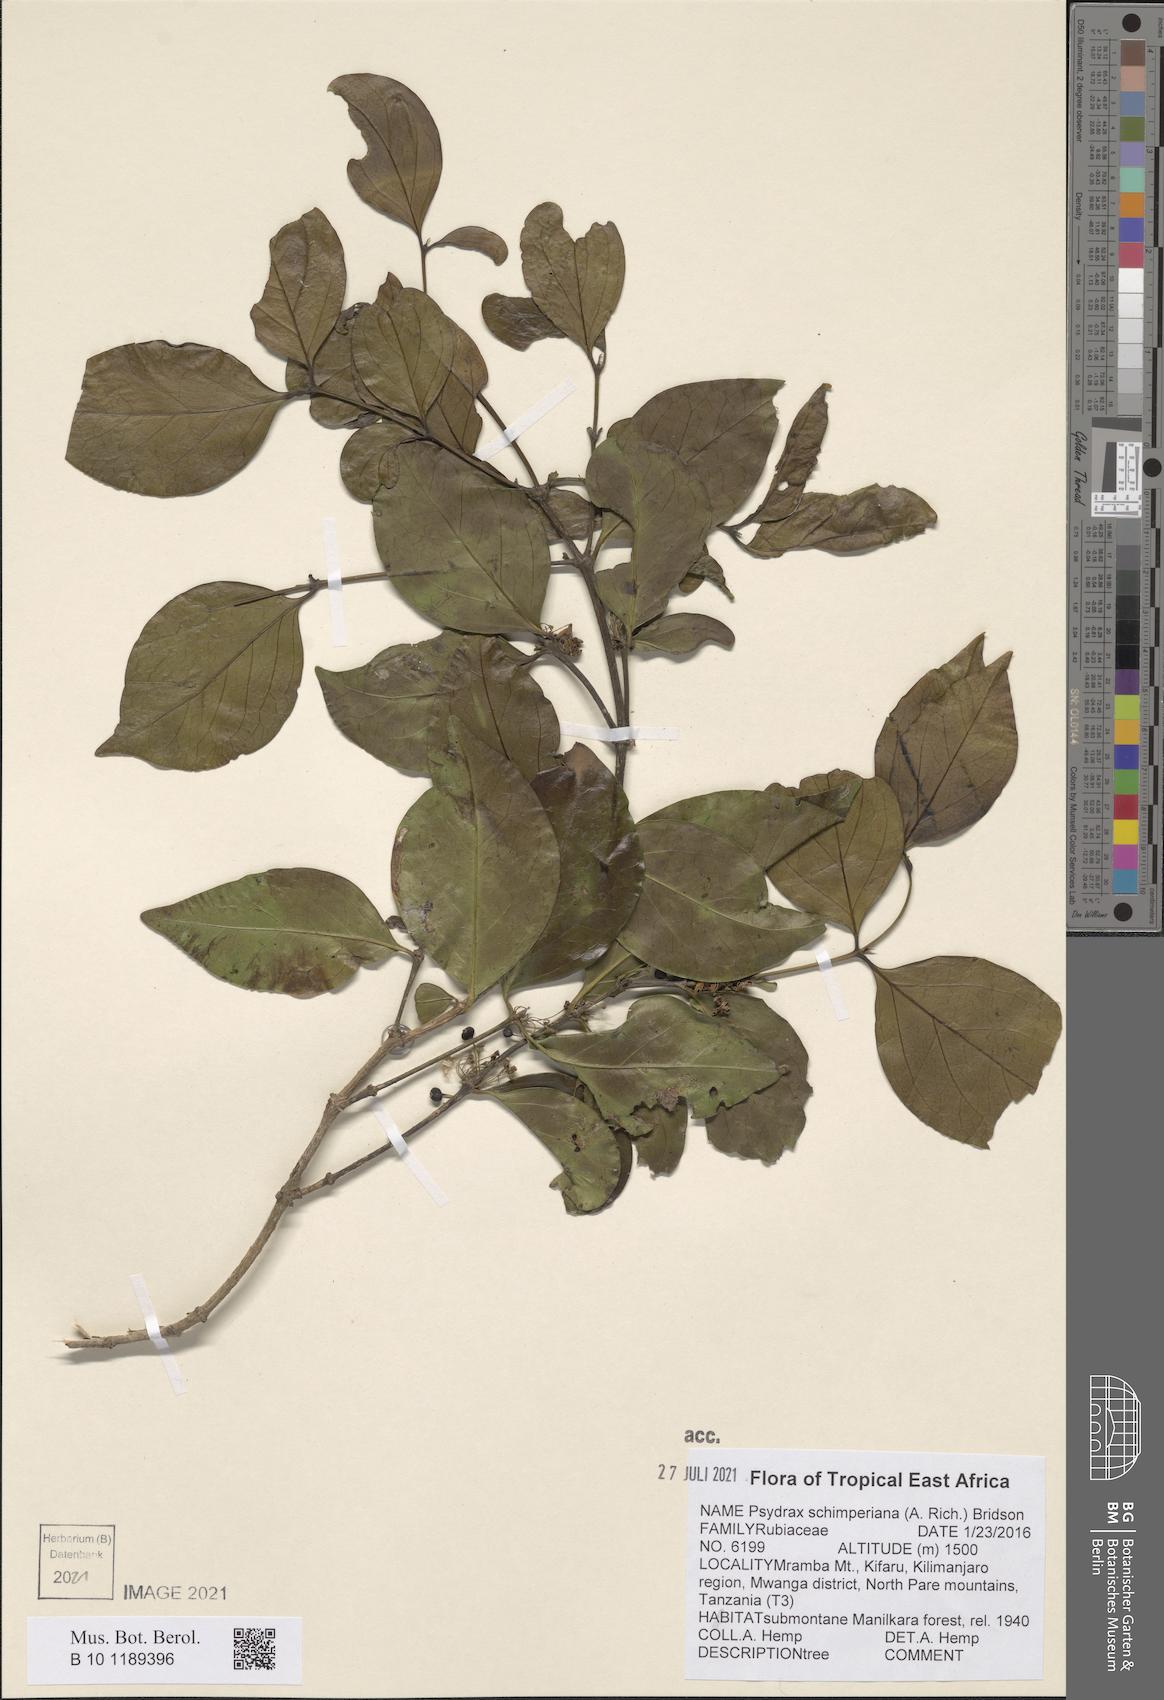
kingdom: Plantae
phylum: Tracheophyta
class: Magnoliopsida
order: Gentianales
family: Rubiaceae
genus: Psydrax
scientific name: Psydrax schimperianus
